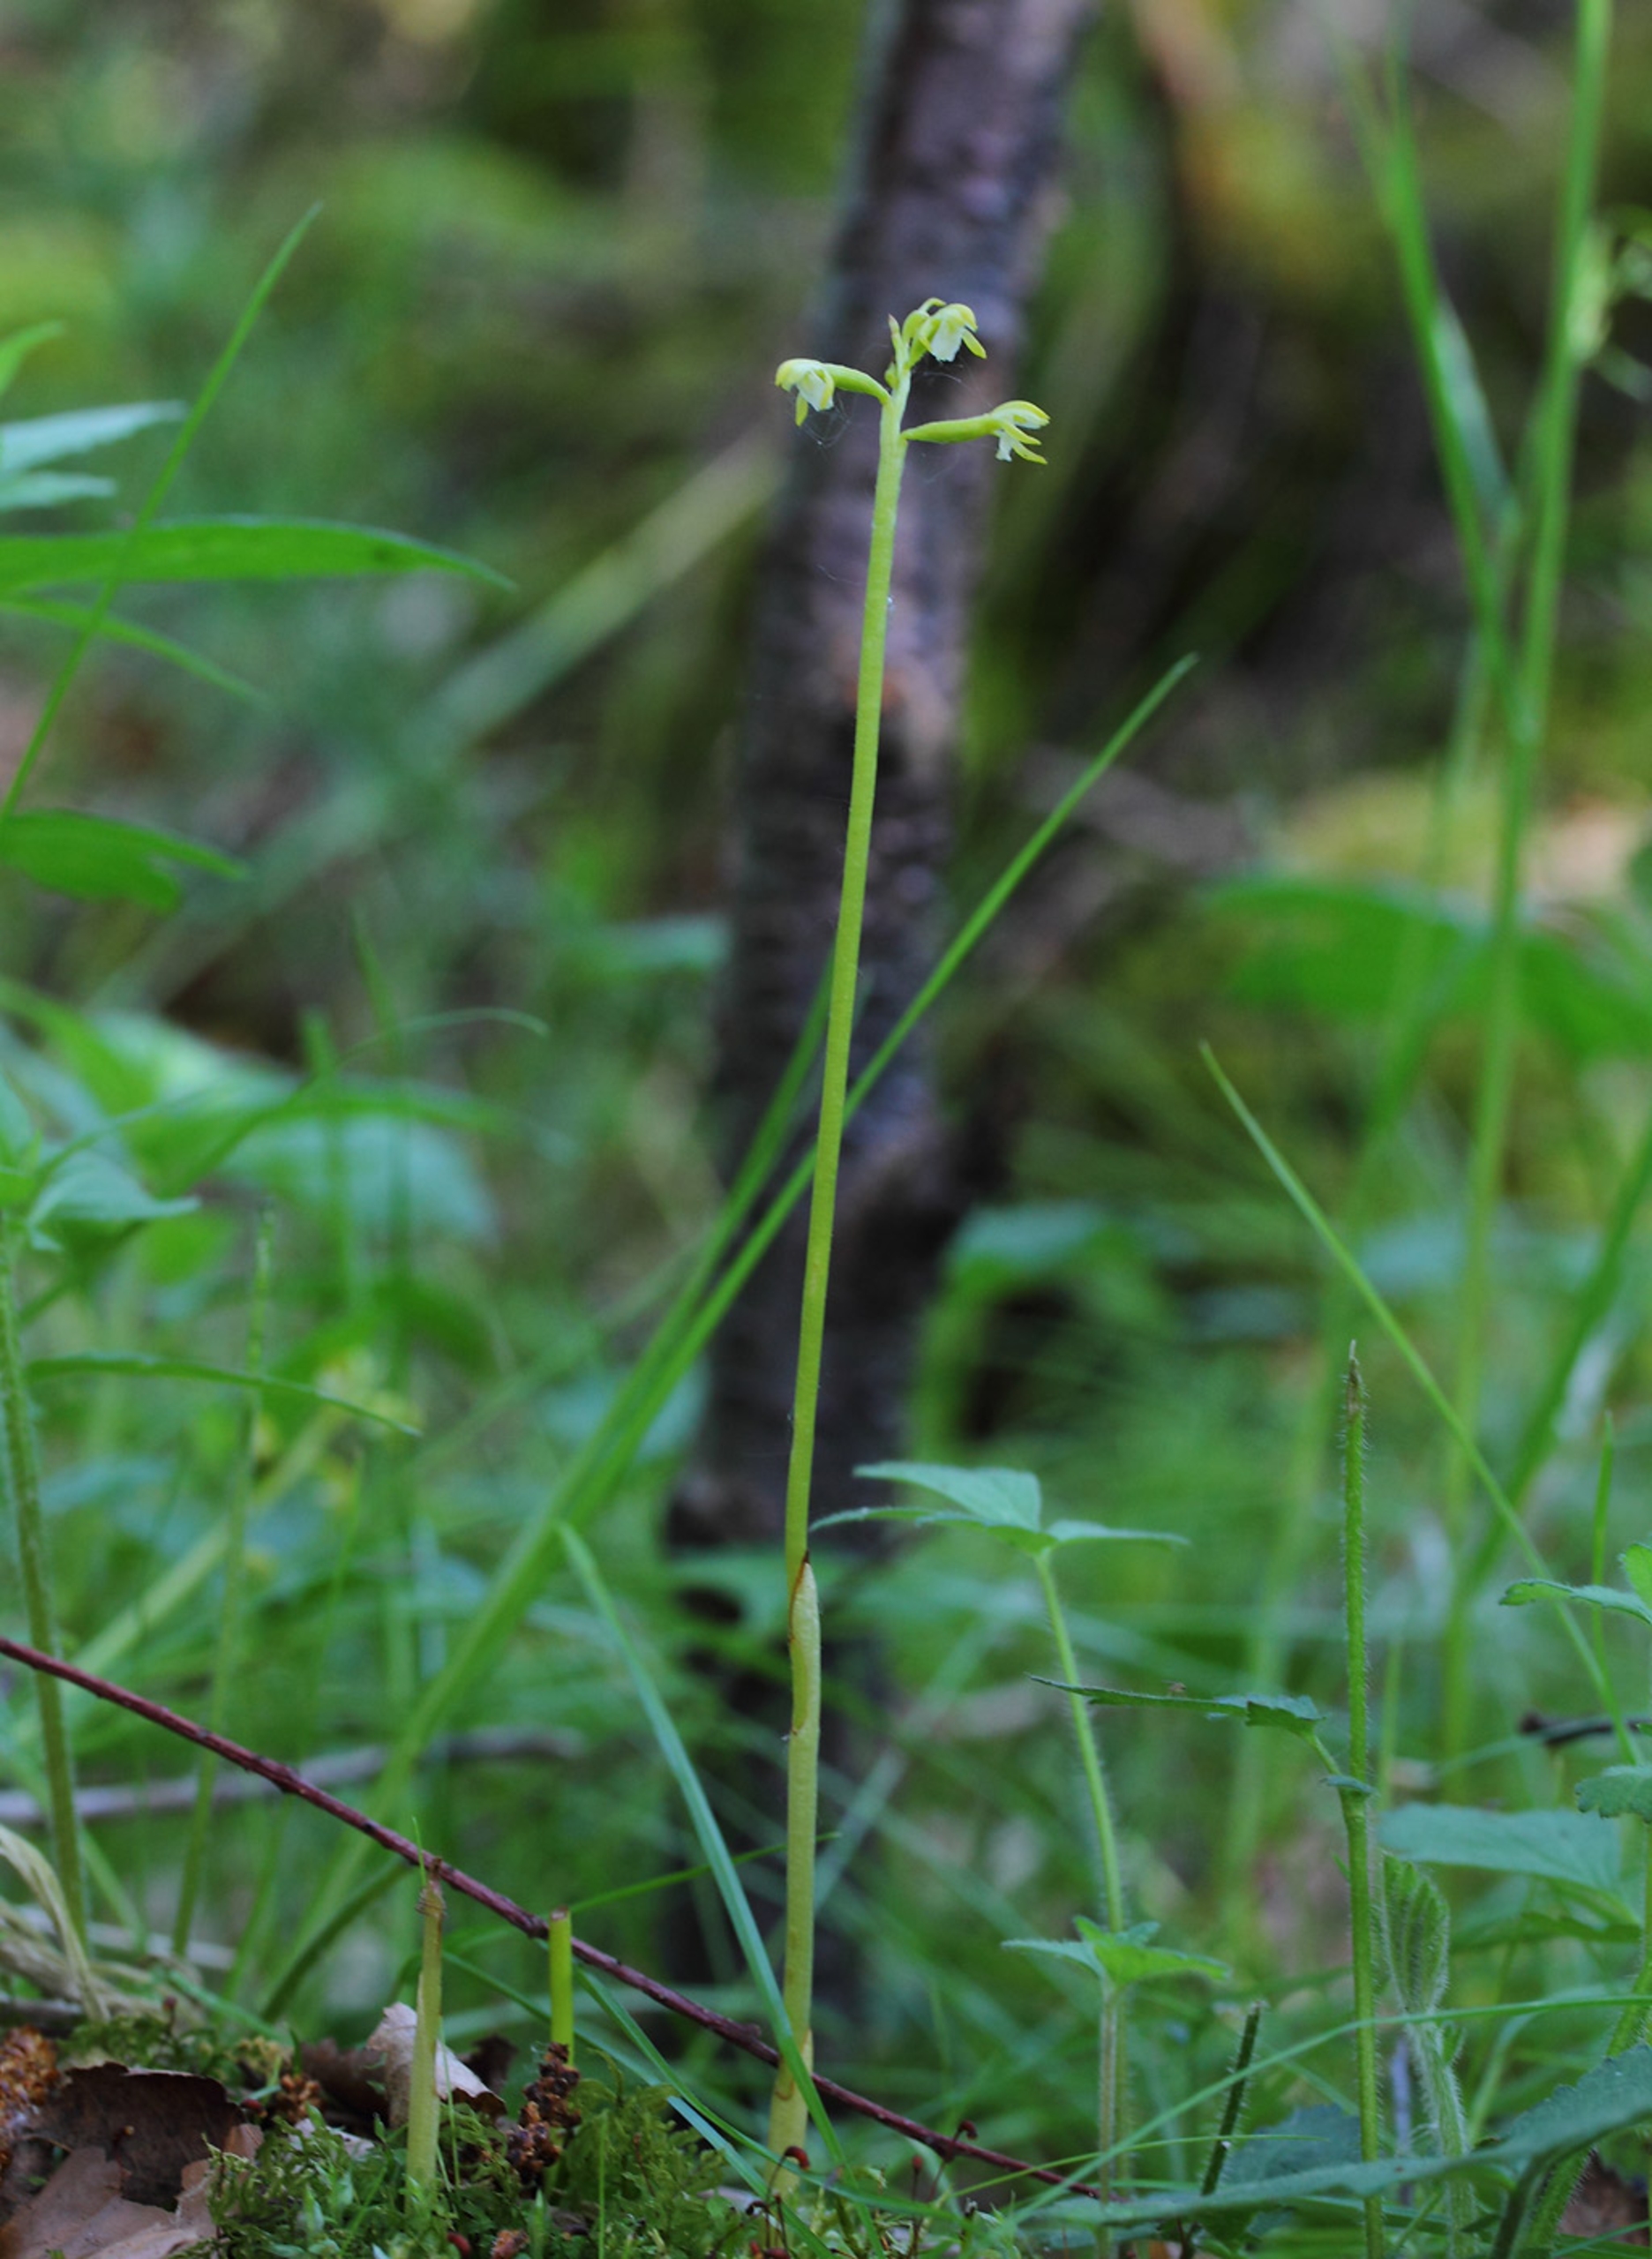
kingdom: Plantae
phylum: Tracheophyta
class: Liliopsida
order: Asparagales
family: Orchidaceae
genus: Corallorhiza
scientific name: Corallorhiza trifida
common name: Koralrod
